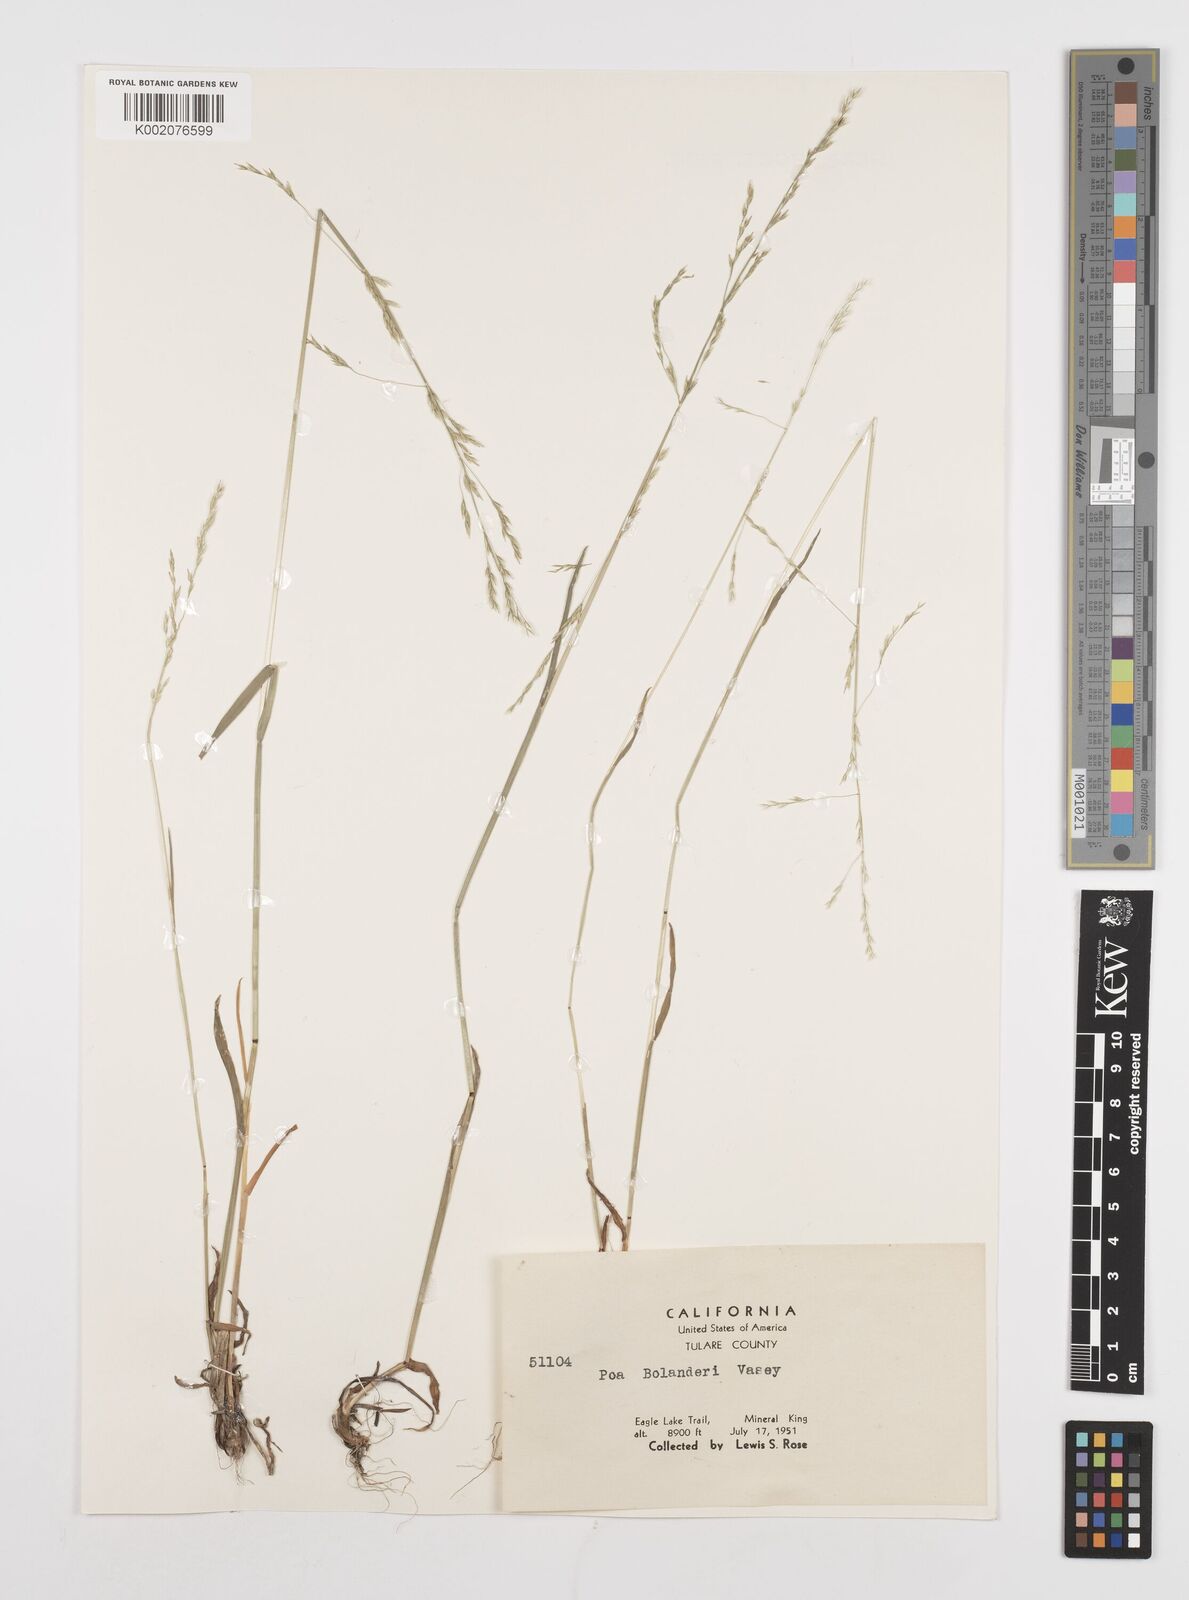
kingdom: Plantae
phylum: Tracheophyta
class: Liliopsida
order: Poales
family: Poaceae
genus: Poa
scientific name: Poa bolanderi
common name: Bolander's bluegrass
